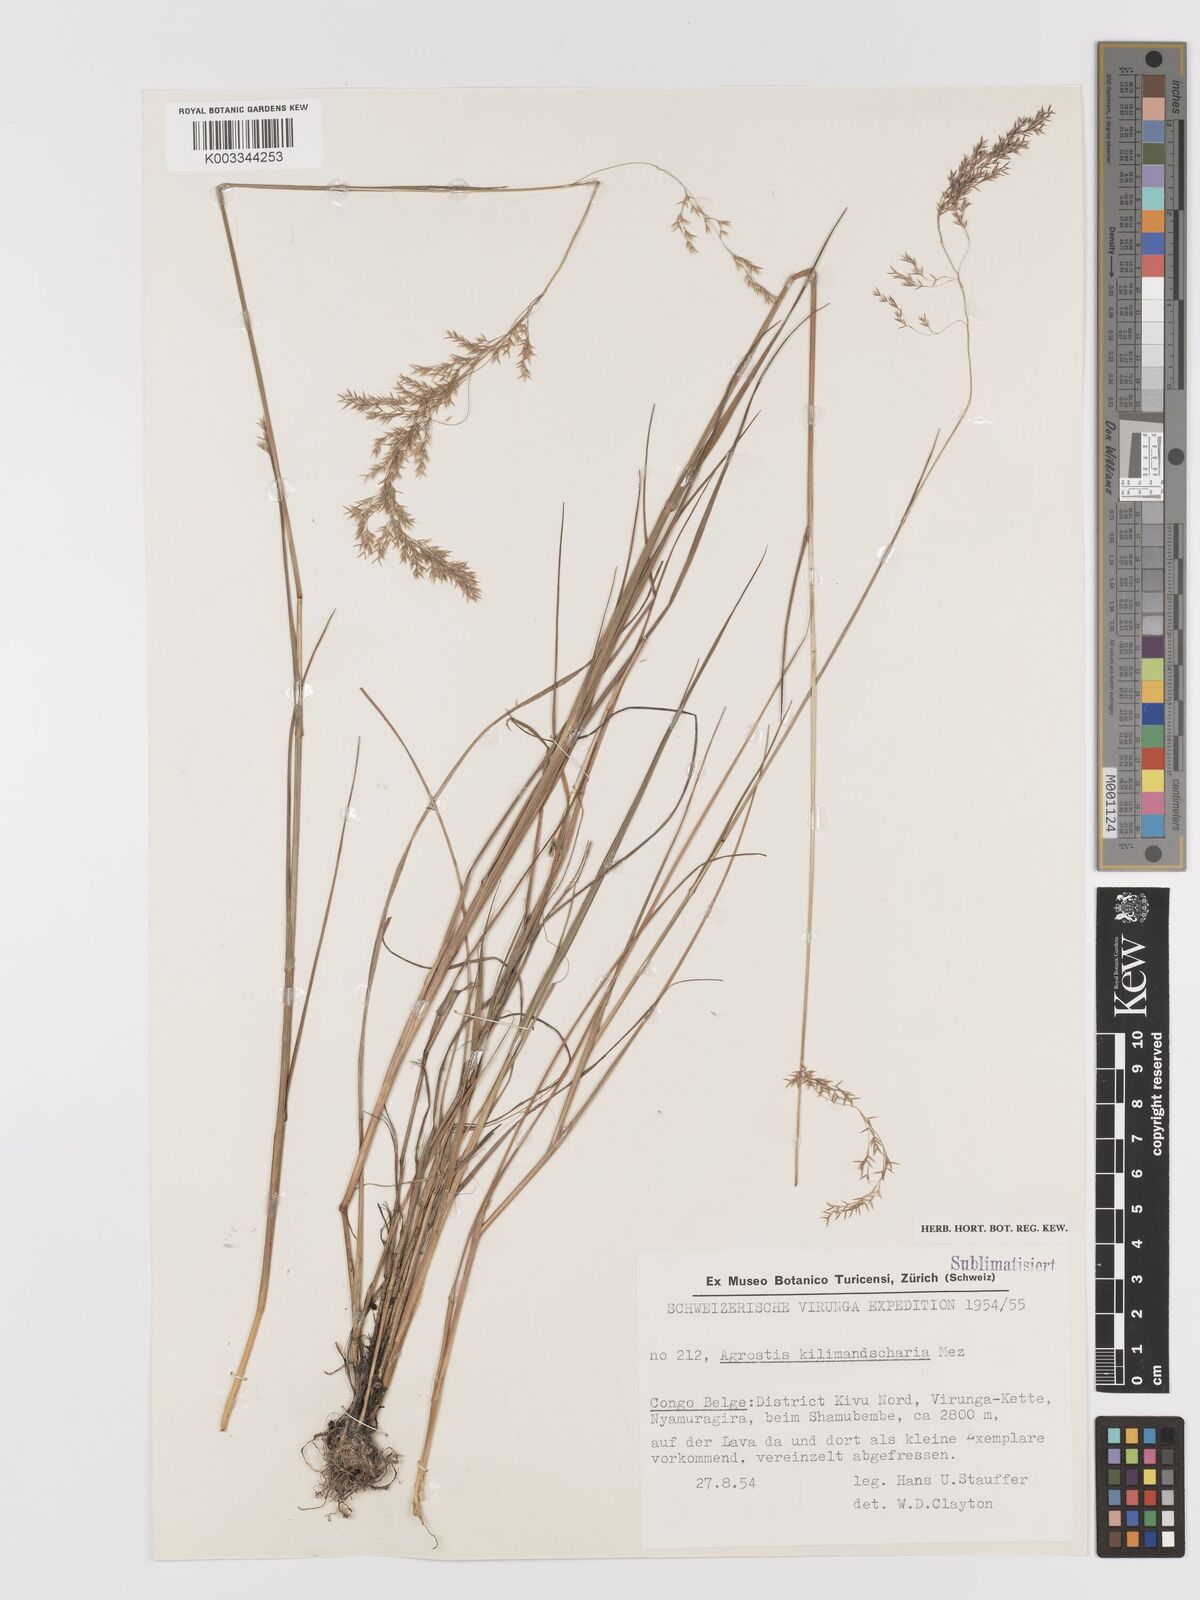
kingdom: Plantae
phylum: Tracheophyta
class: Liliopsida
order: Poales
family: Poaceae
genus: Agrostis
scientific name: Agrostis kilimandscharica
